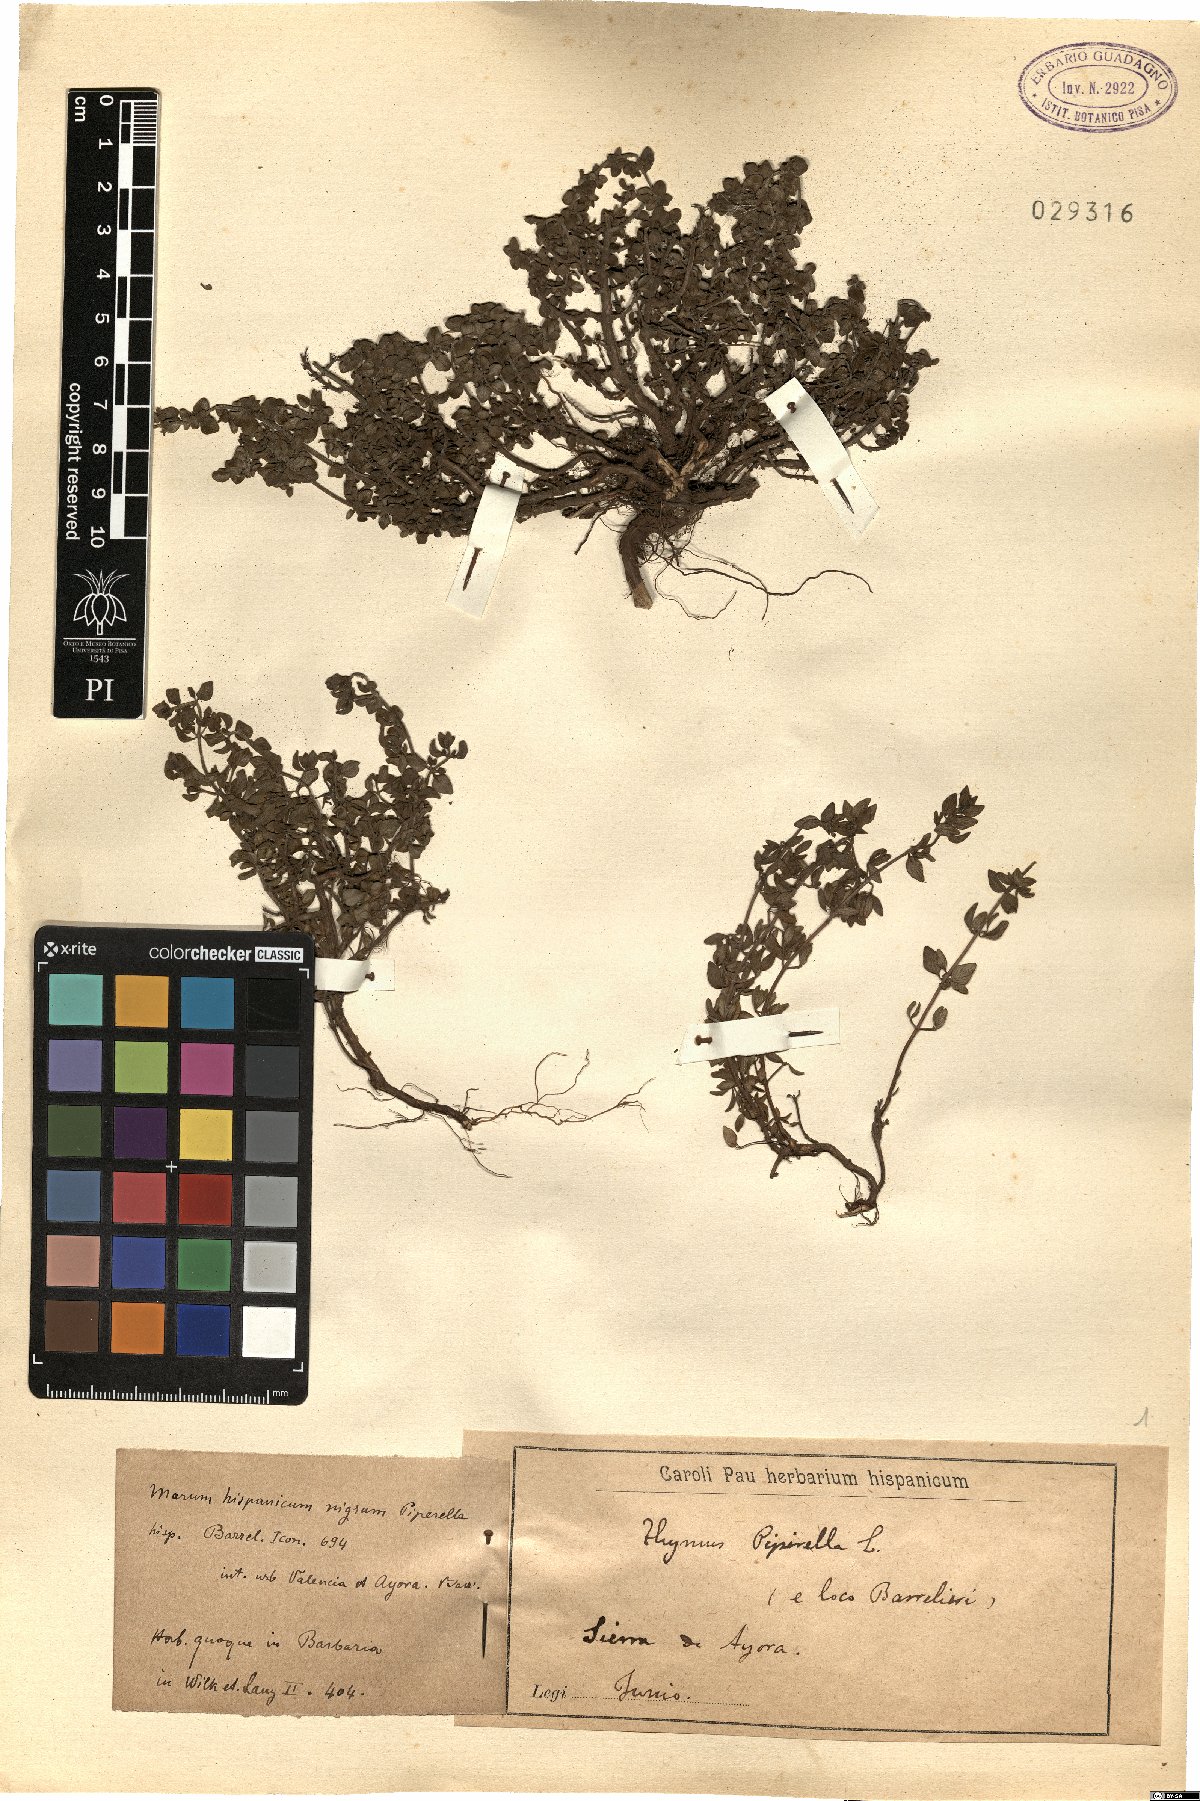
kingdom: Plantae
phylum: Tracheophyta
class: Magnoliopsida
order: Lamiales
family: Lamiaceae
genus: Thymus
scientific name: Thymus piperella
